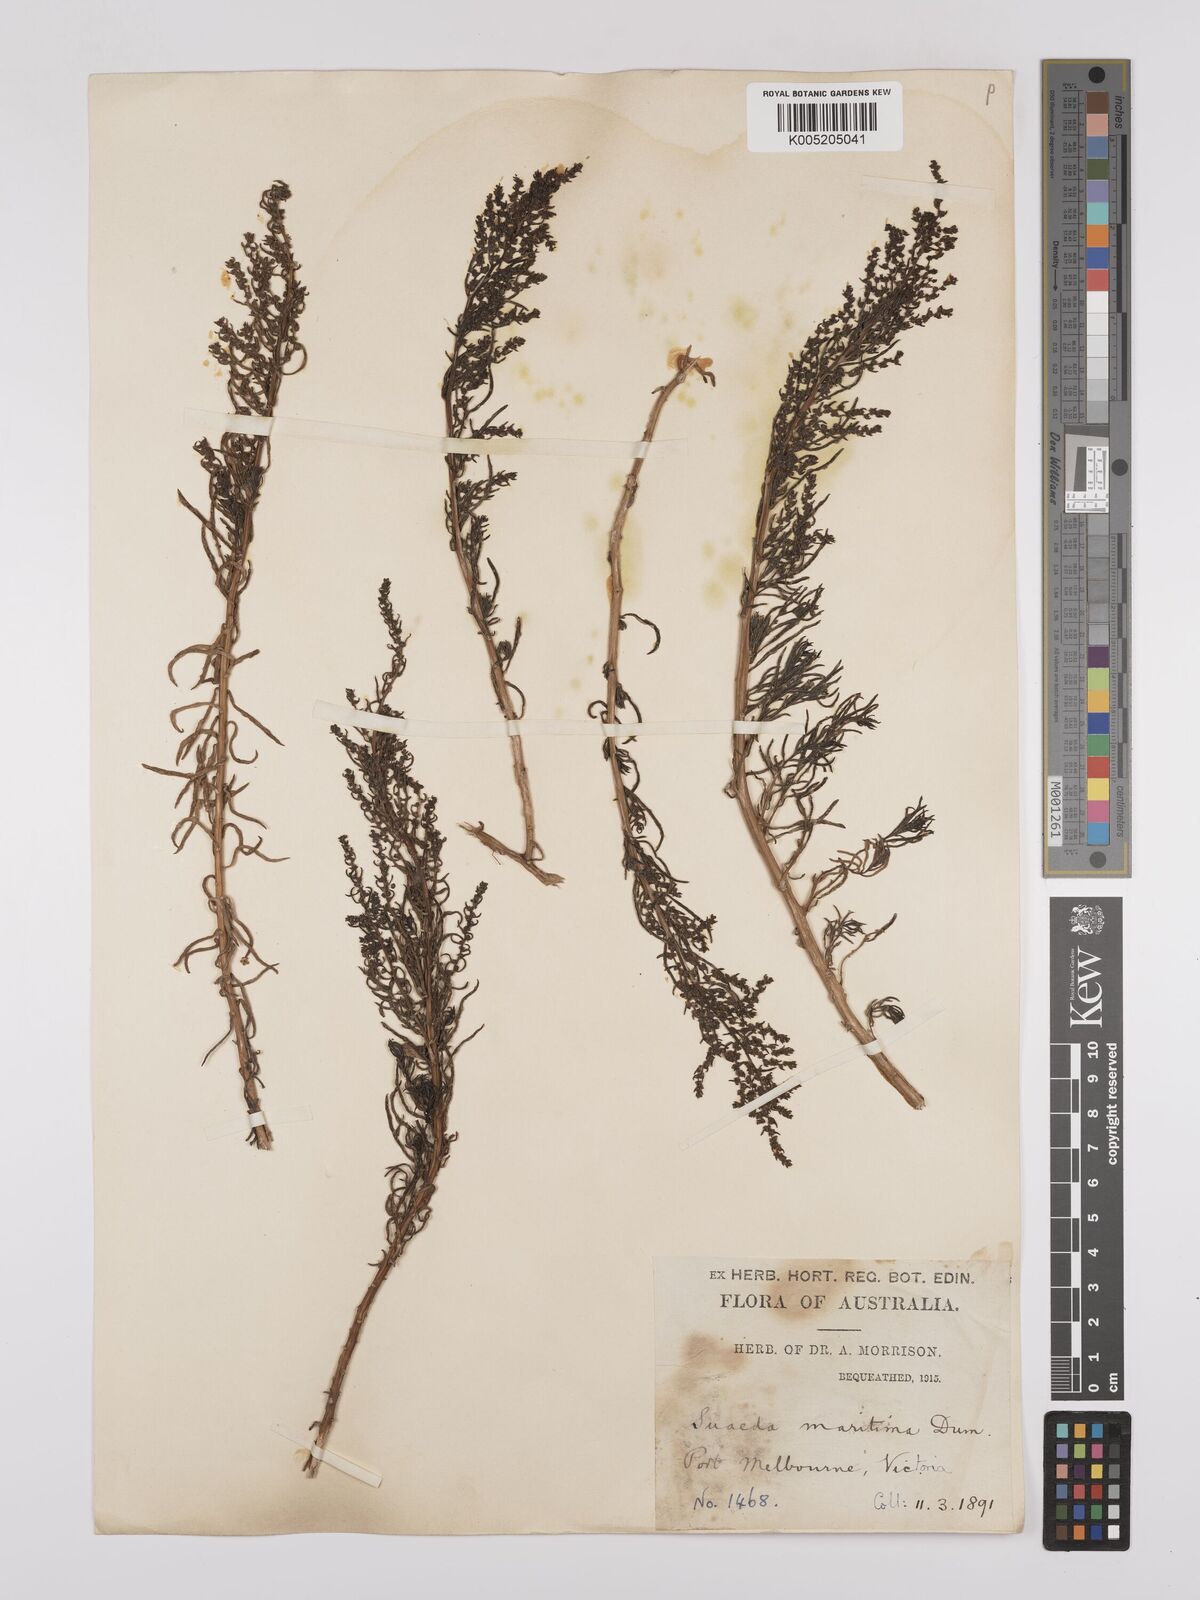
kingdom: Plantae
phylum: Tracheophyta
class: Magnoliopsida
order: Caryophyllales
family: Amaranthaceae
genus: Suaeda
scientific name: Suaeda australis
